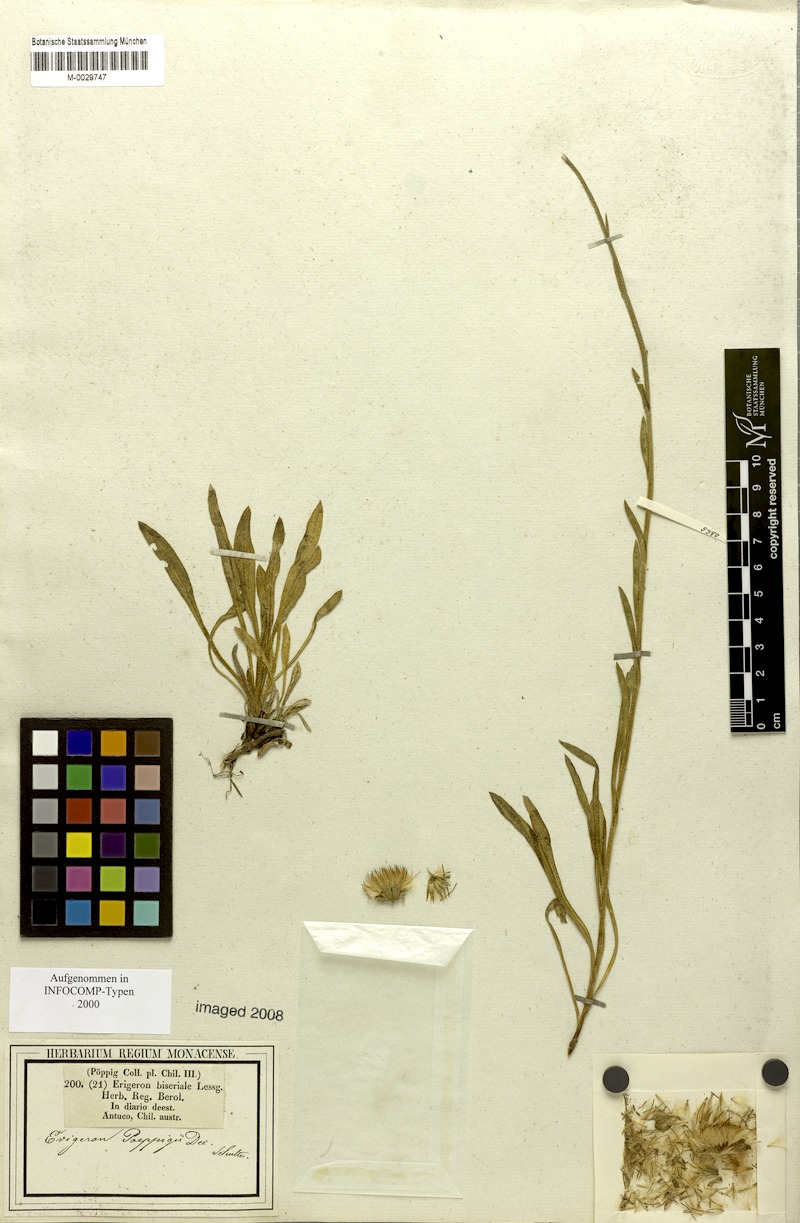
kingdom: Plantae
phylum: Tracheophyta
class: Magnoliopsida
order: Asterales
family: Asteraceae
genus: Erigeron
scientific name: Erigeron cinereus
